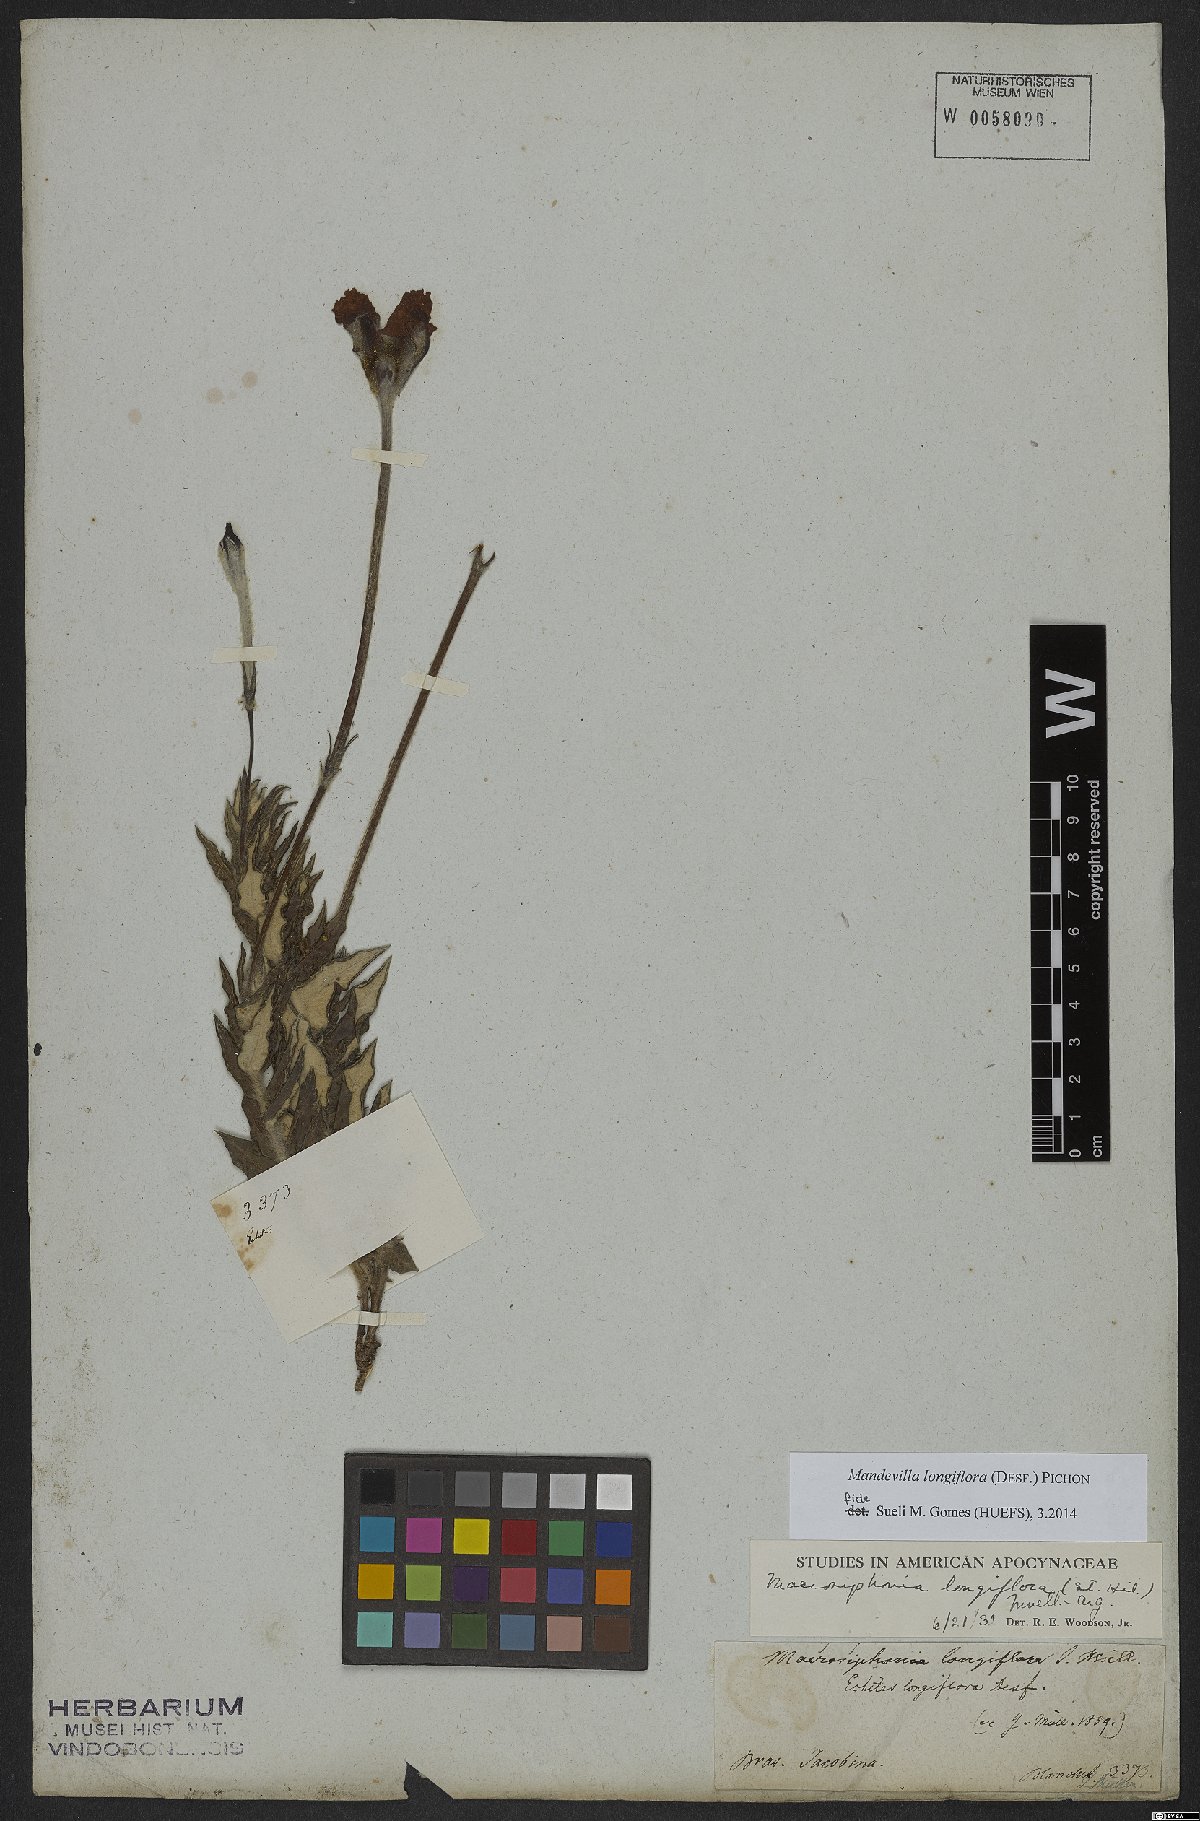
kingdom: Plantae
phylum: Tracheophyta
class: Magnoliopsida
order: Gentianales
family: Apocynaceae
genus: Mandevilla
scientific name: Mandevilla longiflora
